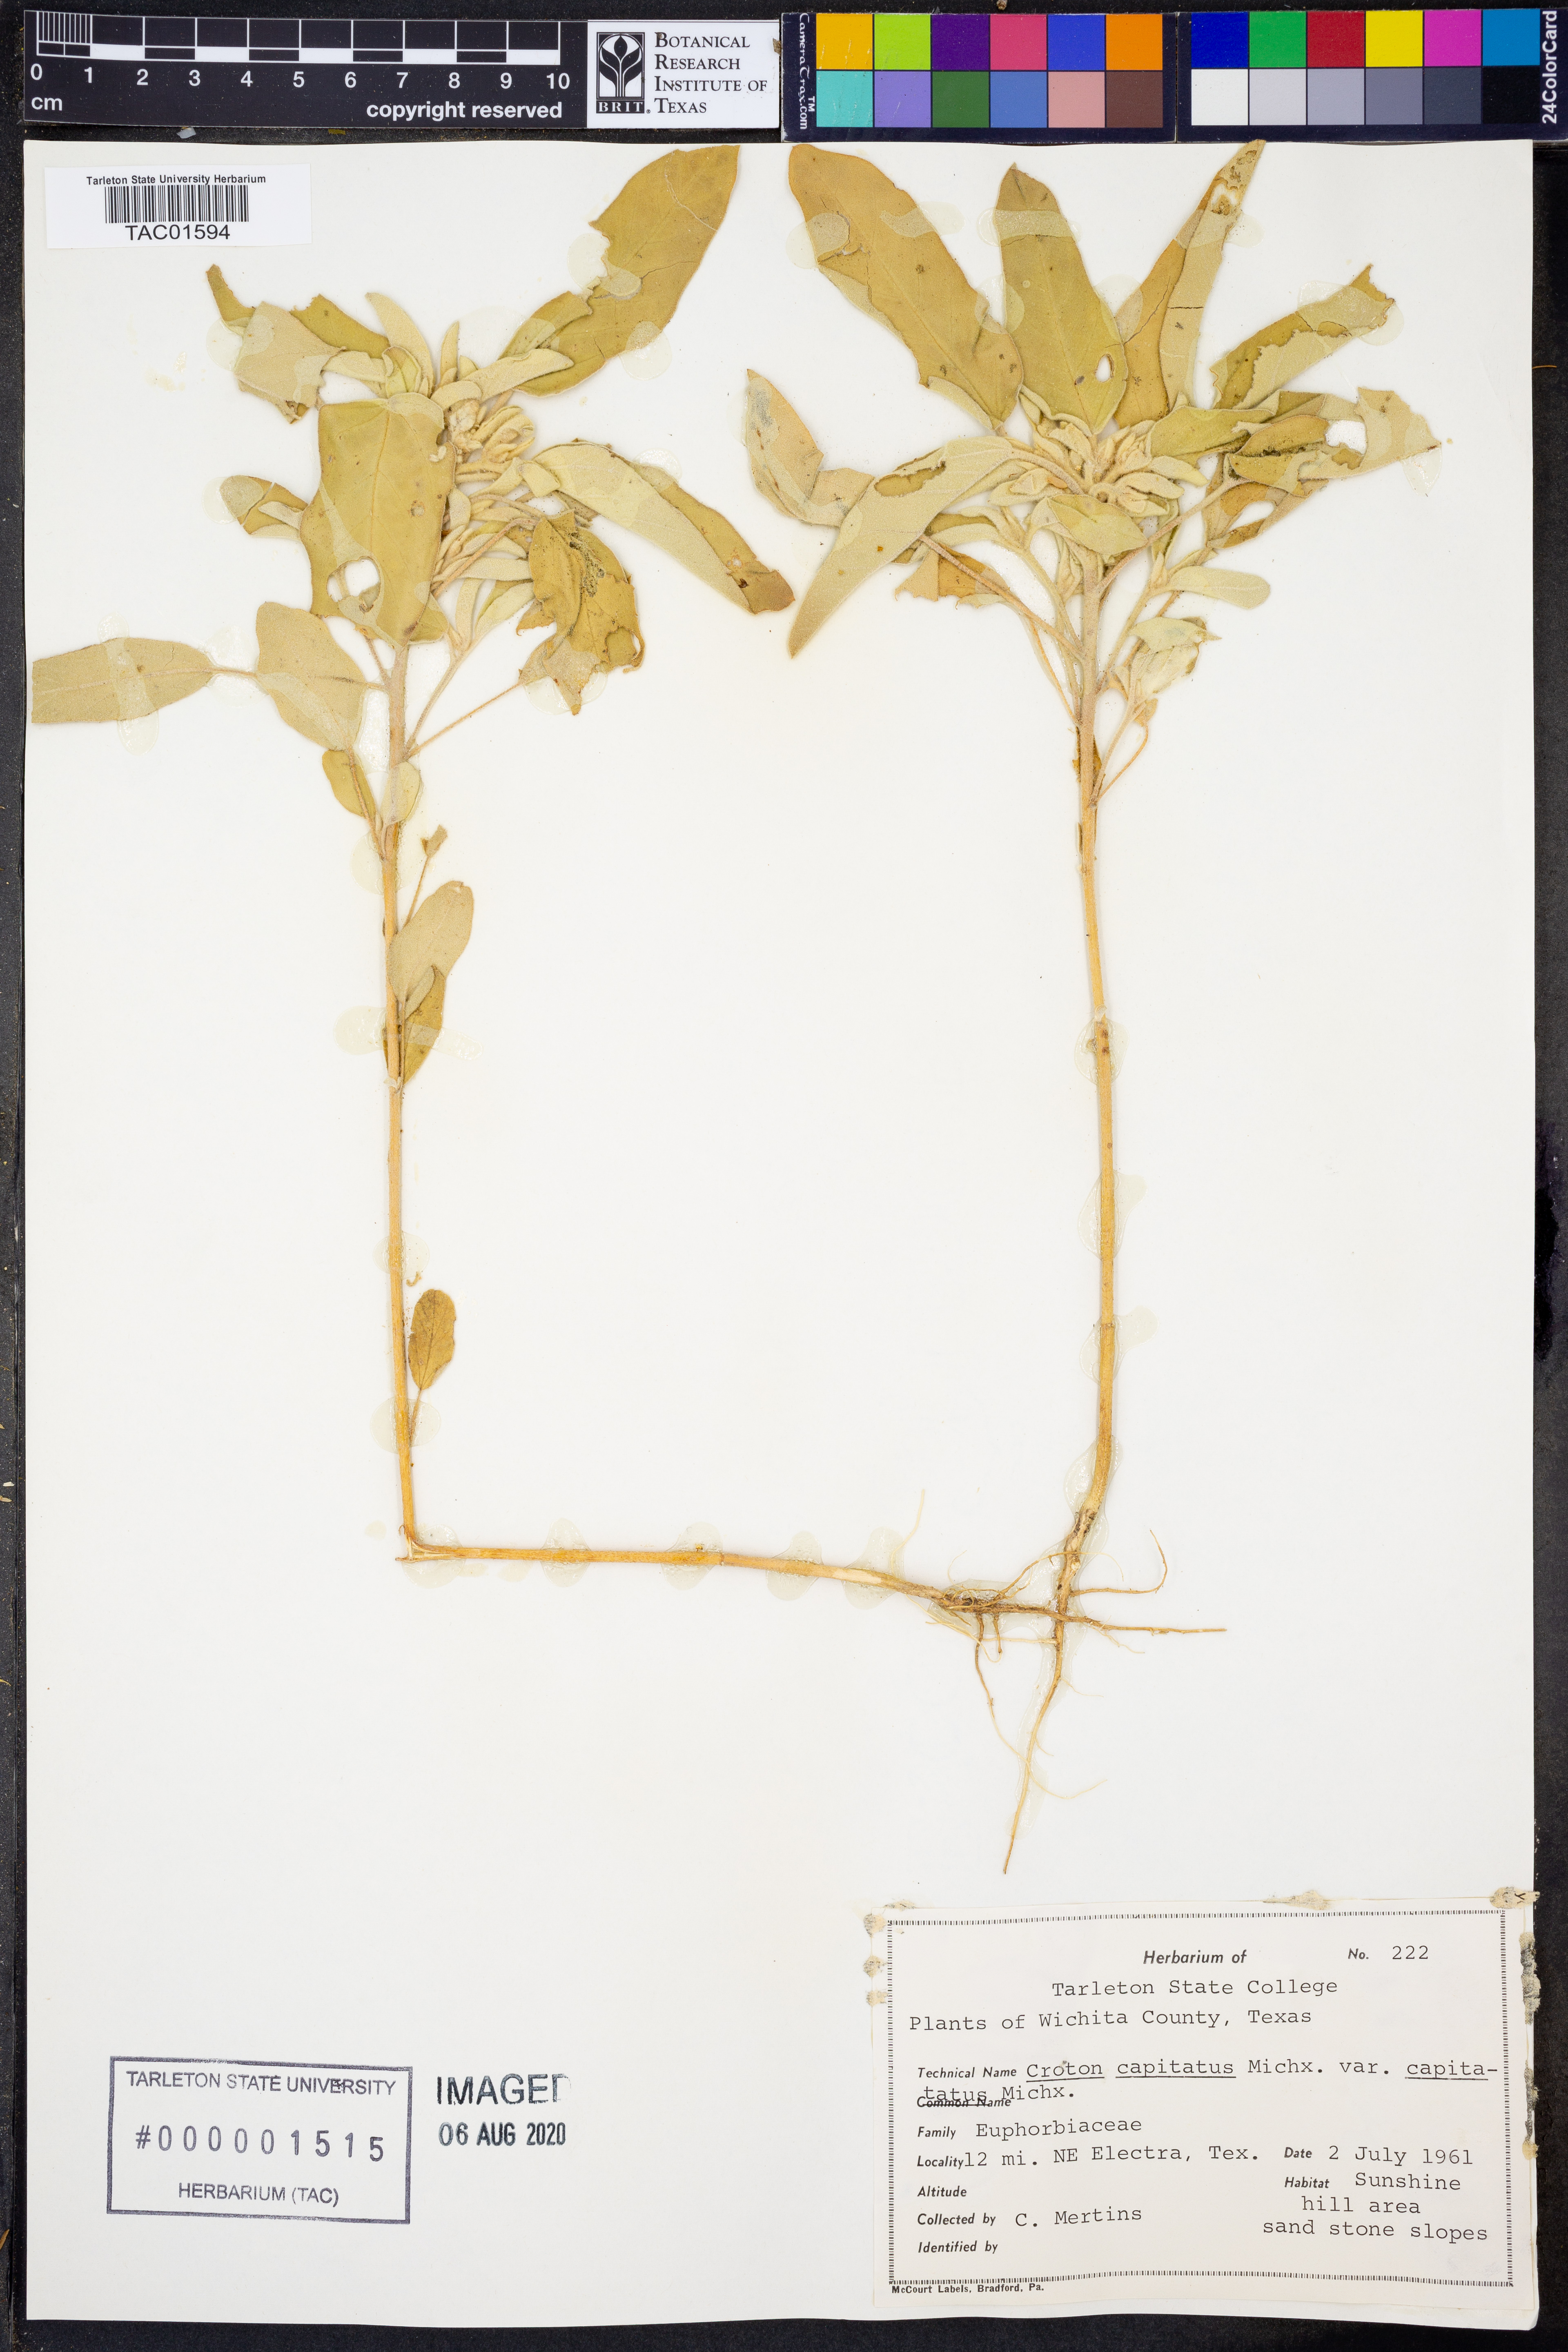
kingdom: Plantae
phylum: Tracheophyta
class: Magnoliopsida
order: Malpighiales
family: Euphorbiaceae
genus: Croton
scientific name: Croton capitatus
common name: Woolly croton
